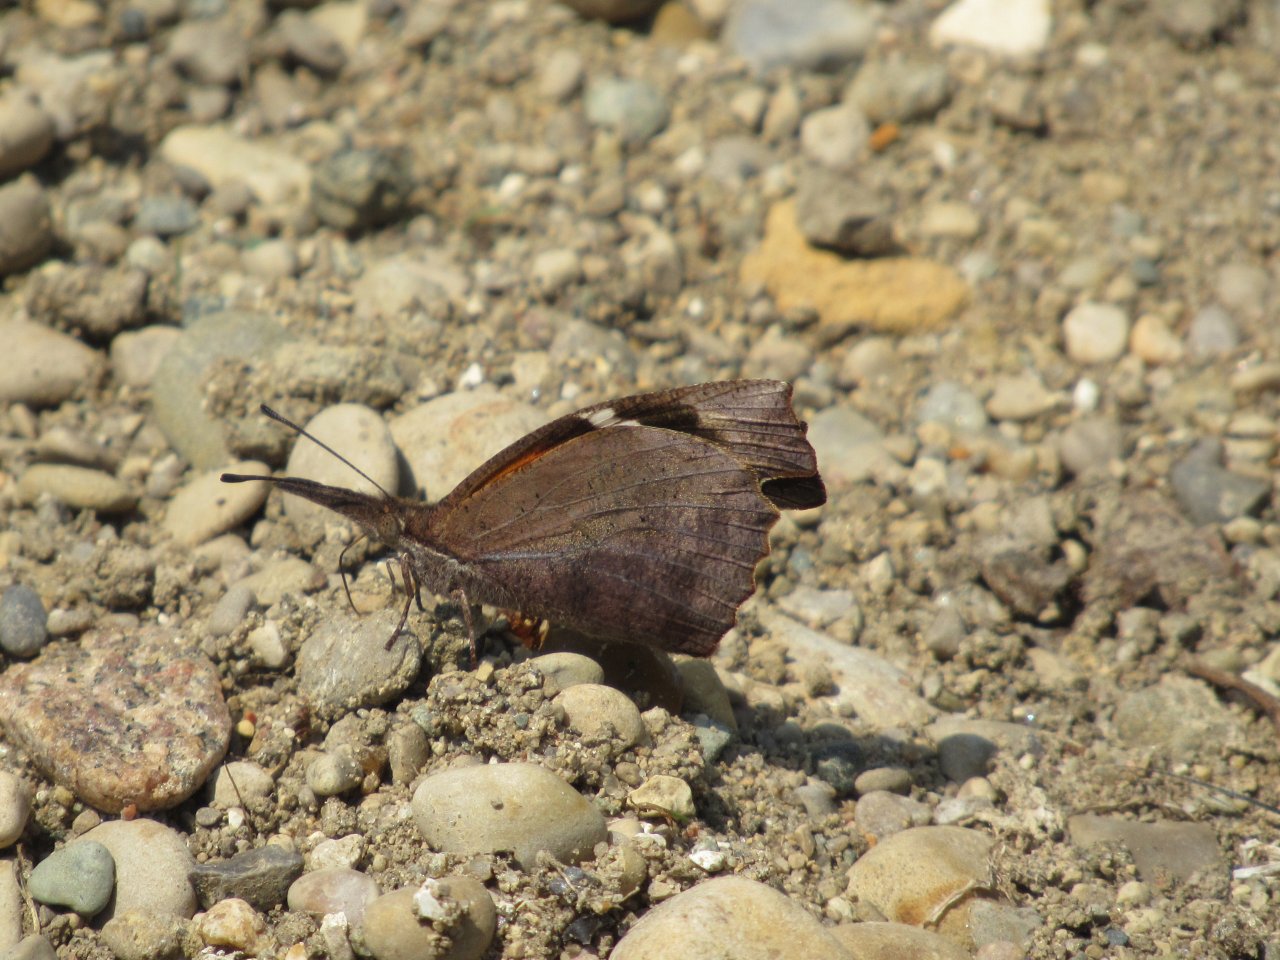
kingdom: Animalia
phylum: Arthropoda
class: Insecta
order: Lepidoptera
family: Nymphalidae
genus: Libytheana
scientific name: Libytheana carinenta
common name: American Snout
